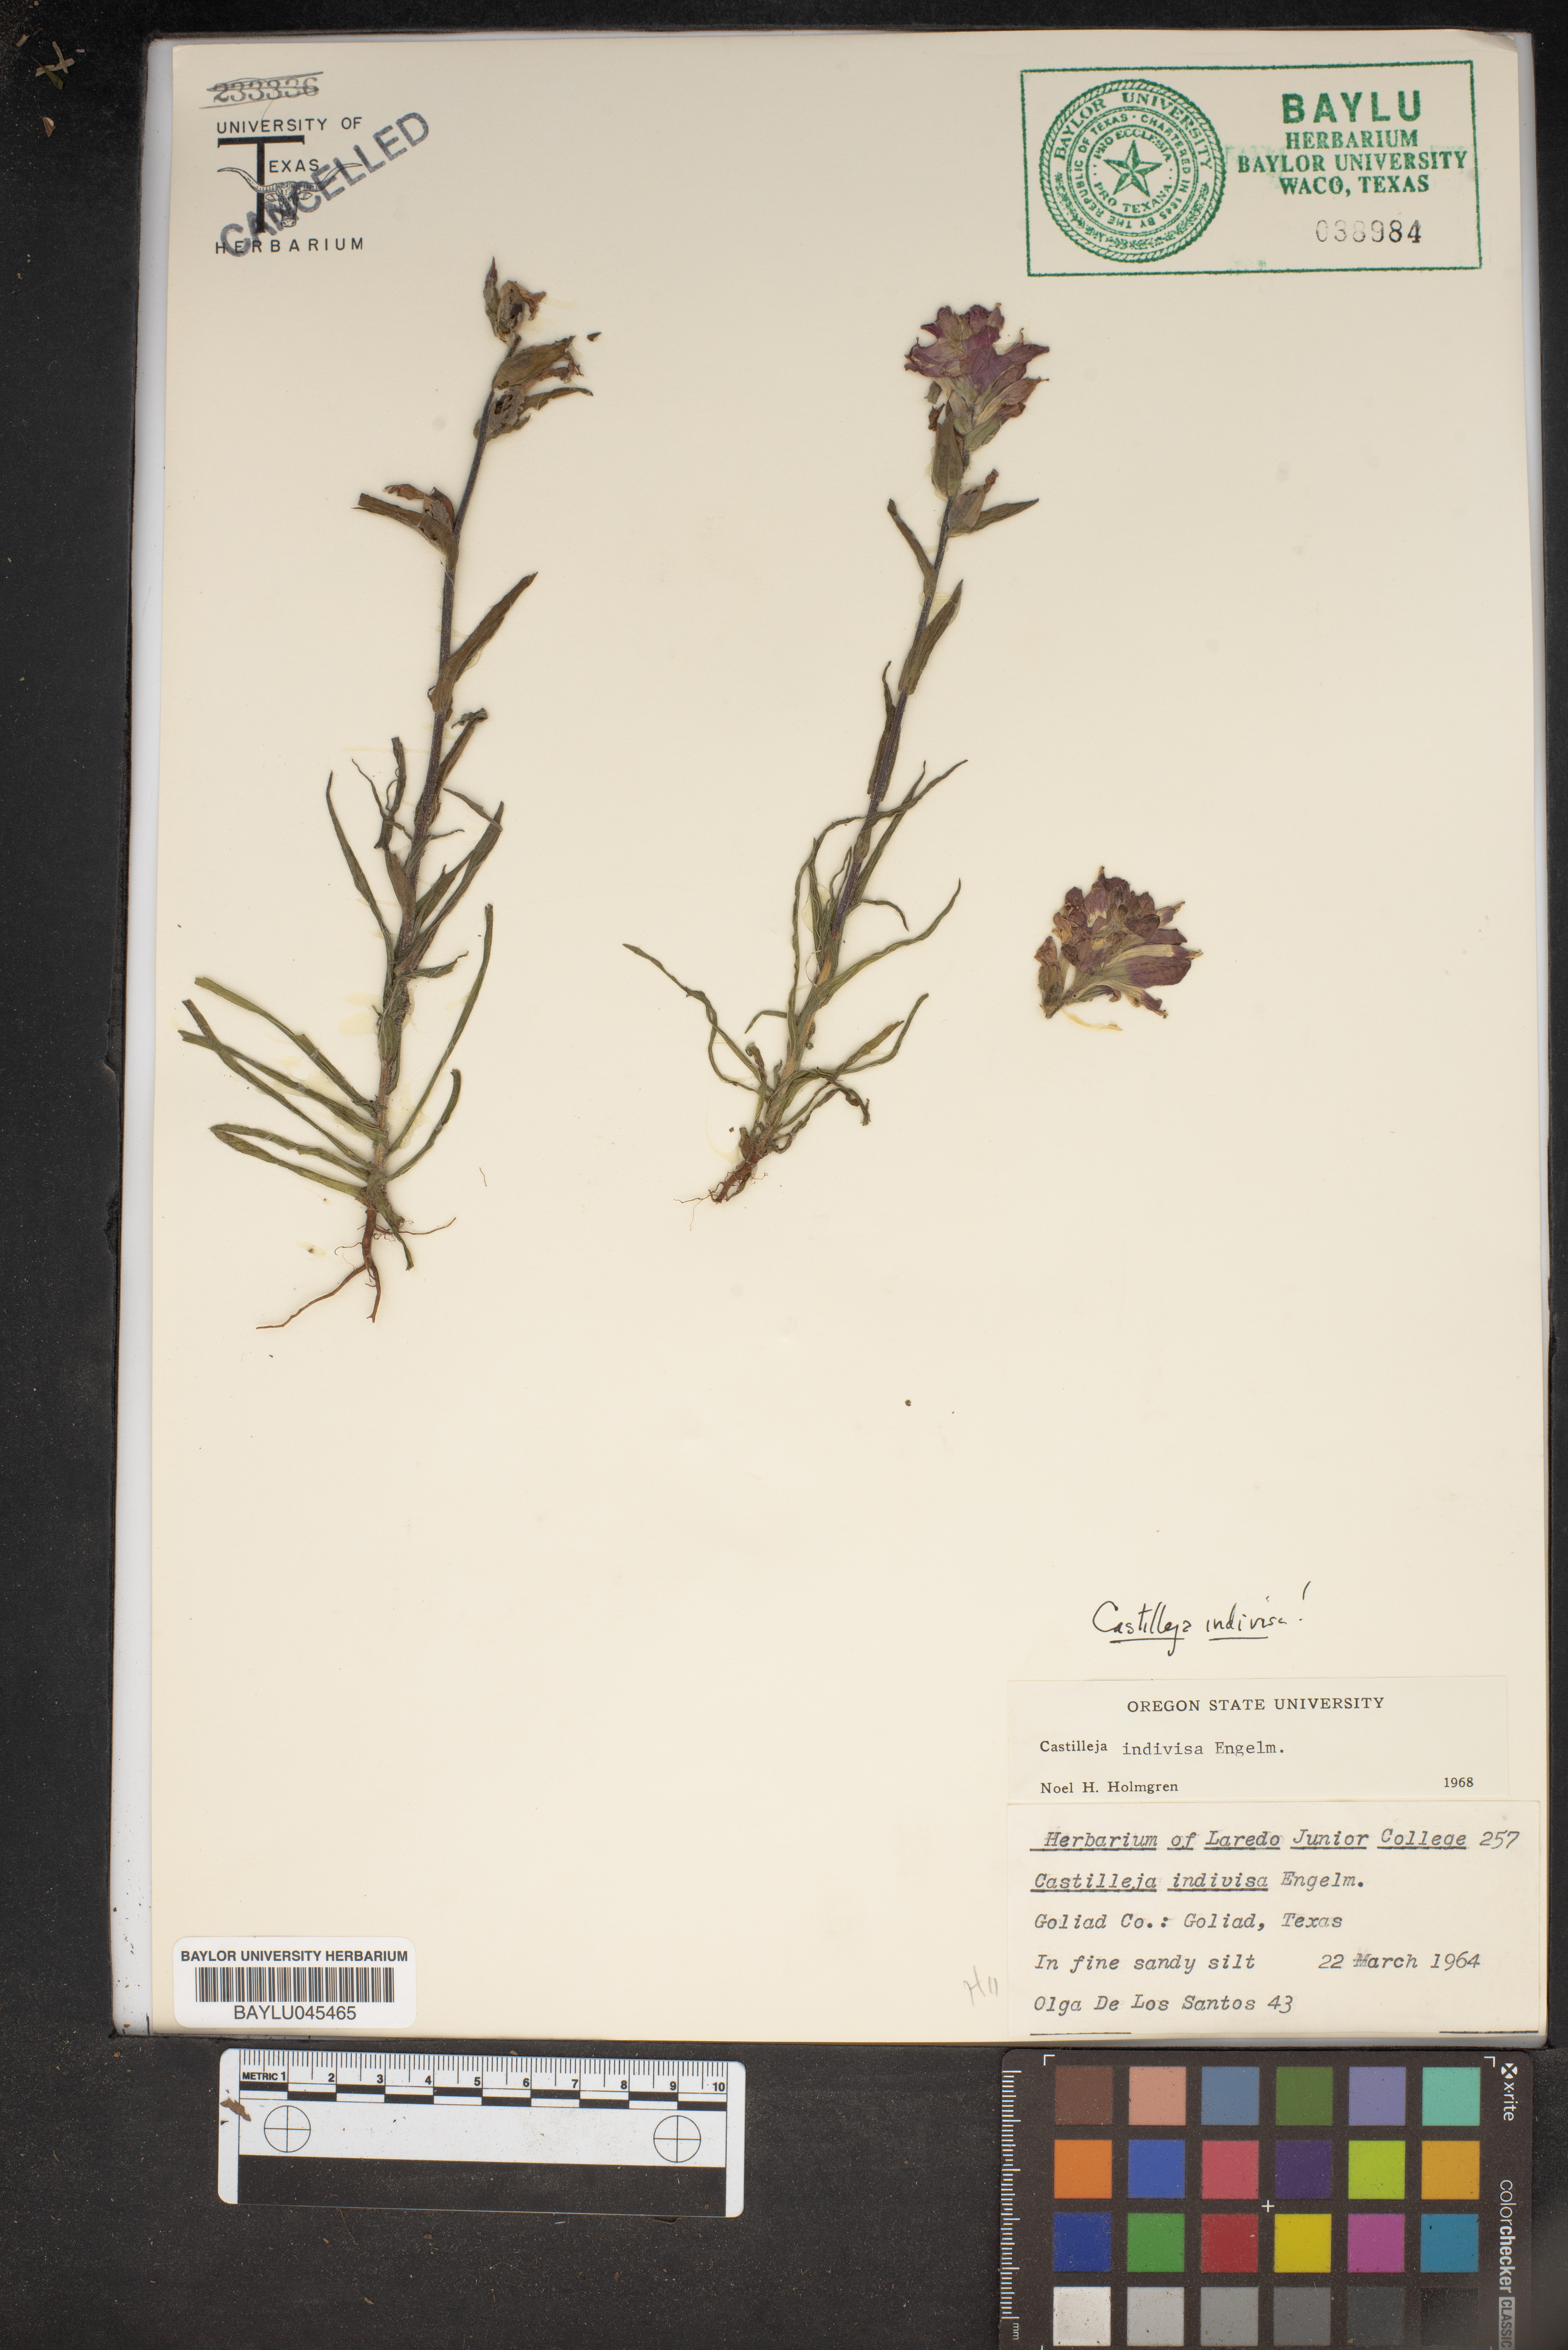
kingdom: Plantae
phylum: Tracheophyta
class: Magnoliopsida
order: Lamiales
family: Orobanchaceae
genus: Castilleja
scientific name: Castilleja indivisa
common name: Texas paintbrush
